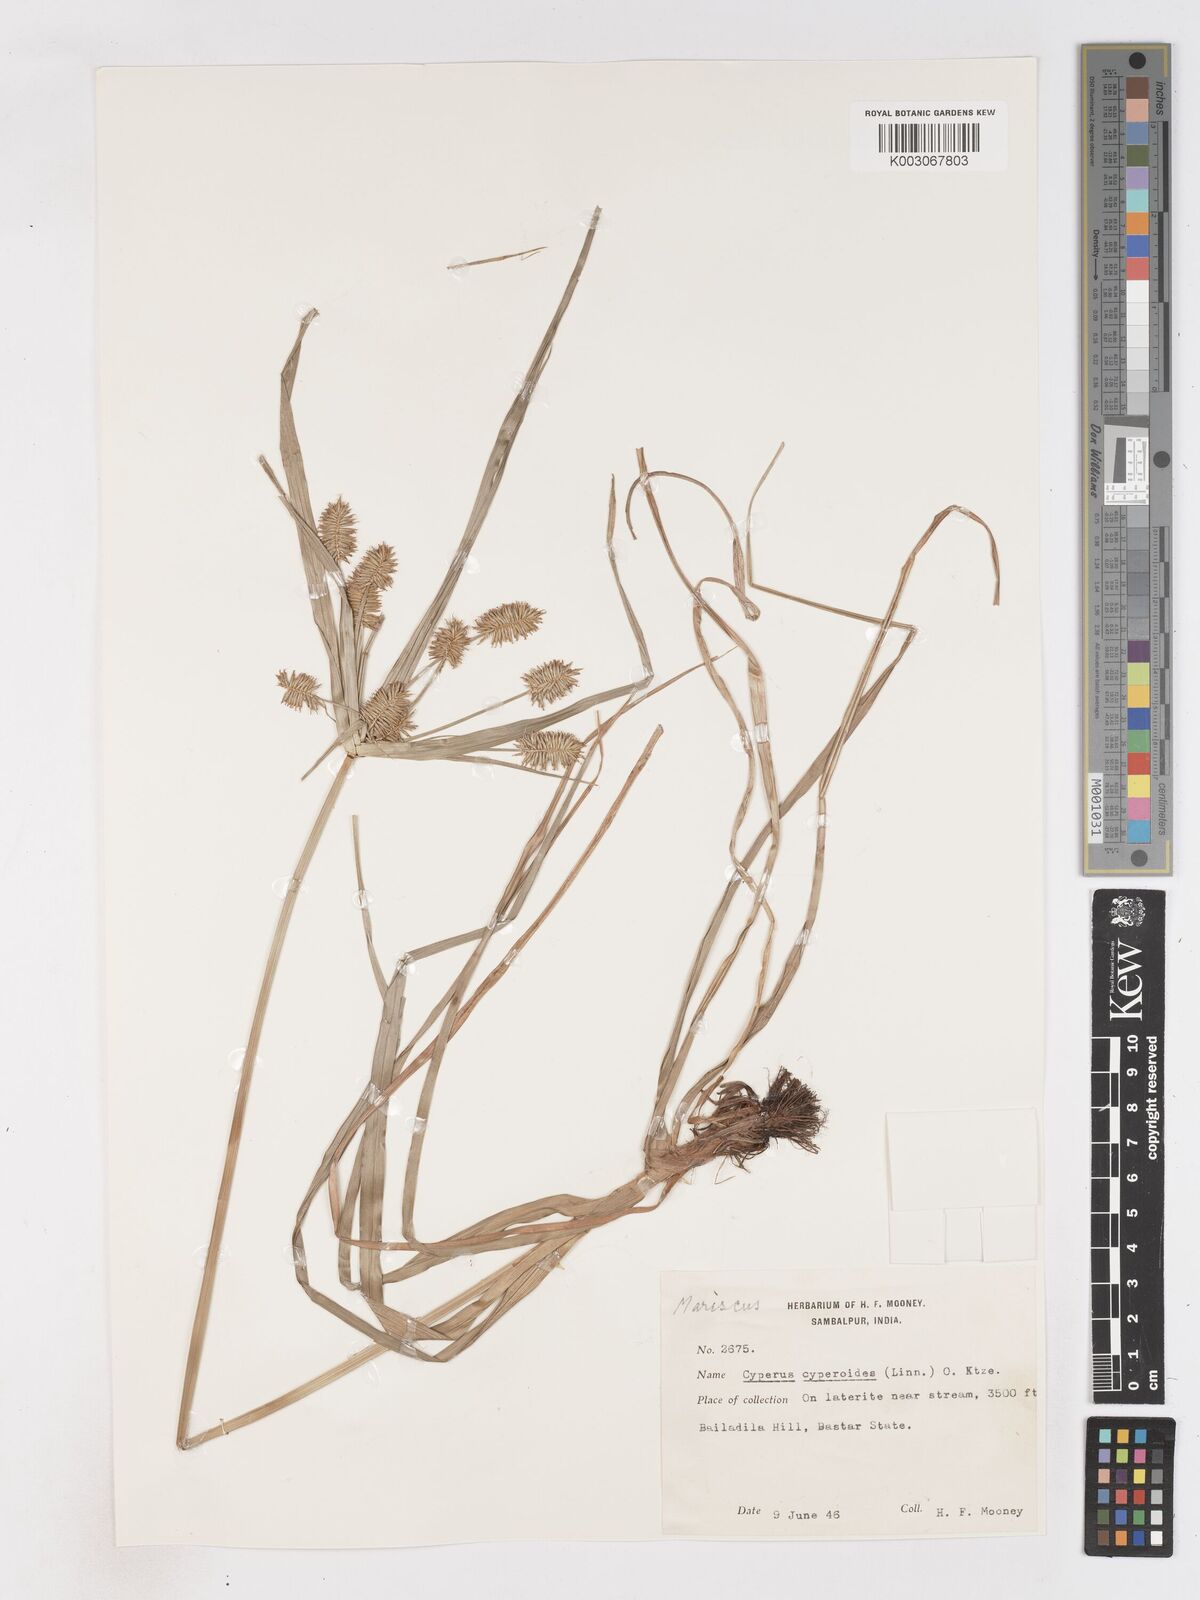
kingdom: Plantae
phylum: Tracheophyta
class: Liliopsida
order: Poales
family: Cyperaceae
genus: Cyperus
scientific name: Cyperus cyperoides
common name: Pacific island flat sedge
